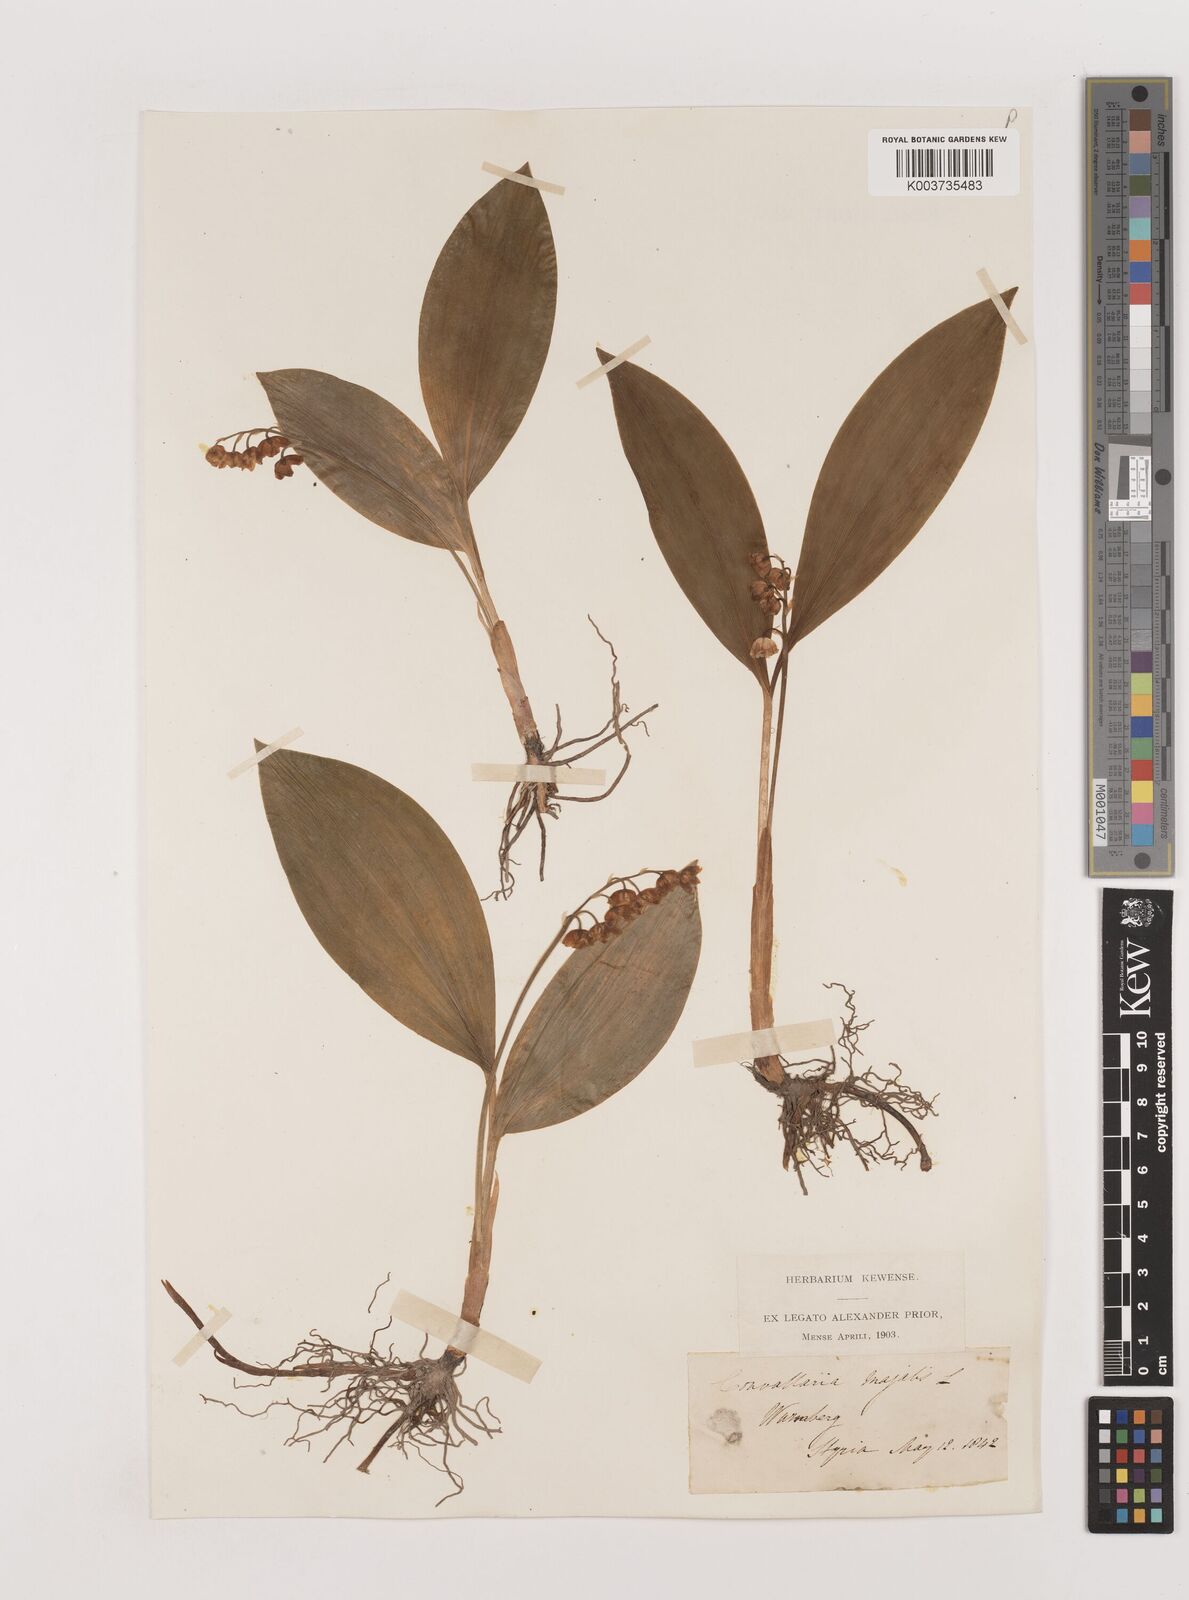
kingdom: Plantae
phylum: Tracheophyta
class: Liliopsida
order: Asparagales
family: Asparagaceae
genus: Convallaria
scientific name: Convallaria majalis
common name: Lily-of-the-valley
